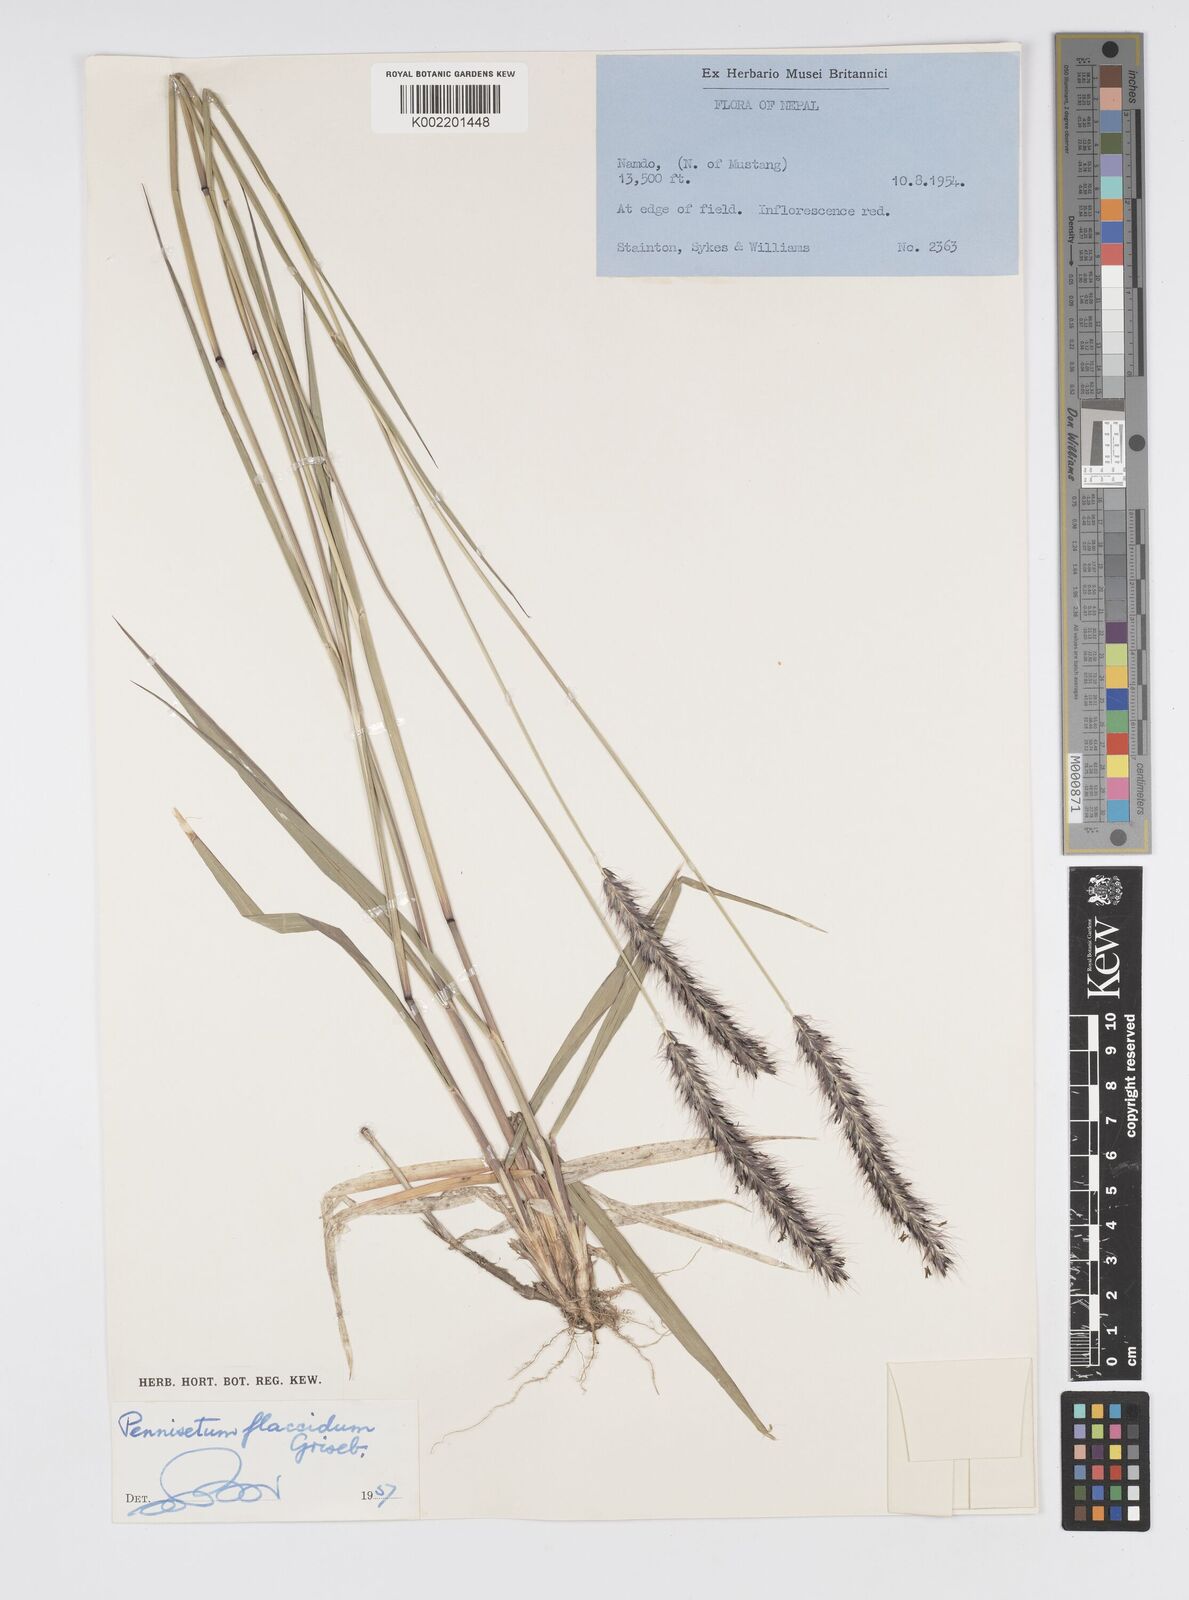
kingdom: Plantae
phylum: Tracheophyta
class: Liliopsida
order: Poales
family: Poaceae
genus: Cenchrus
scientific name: Cenchrus flaccidus
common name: Flaccid grass
